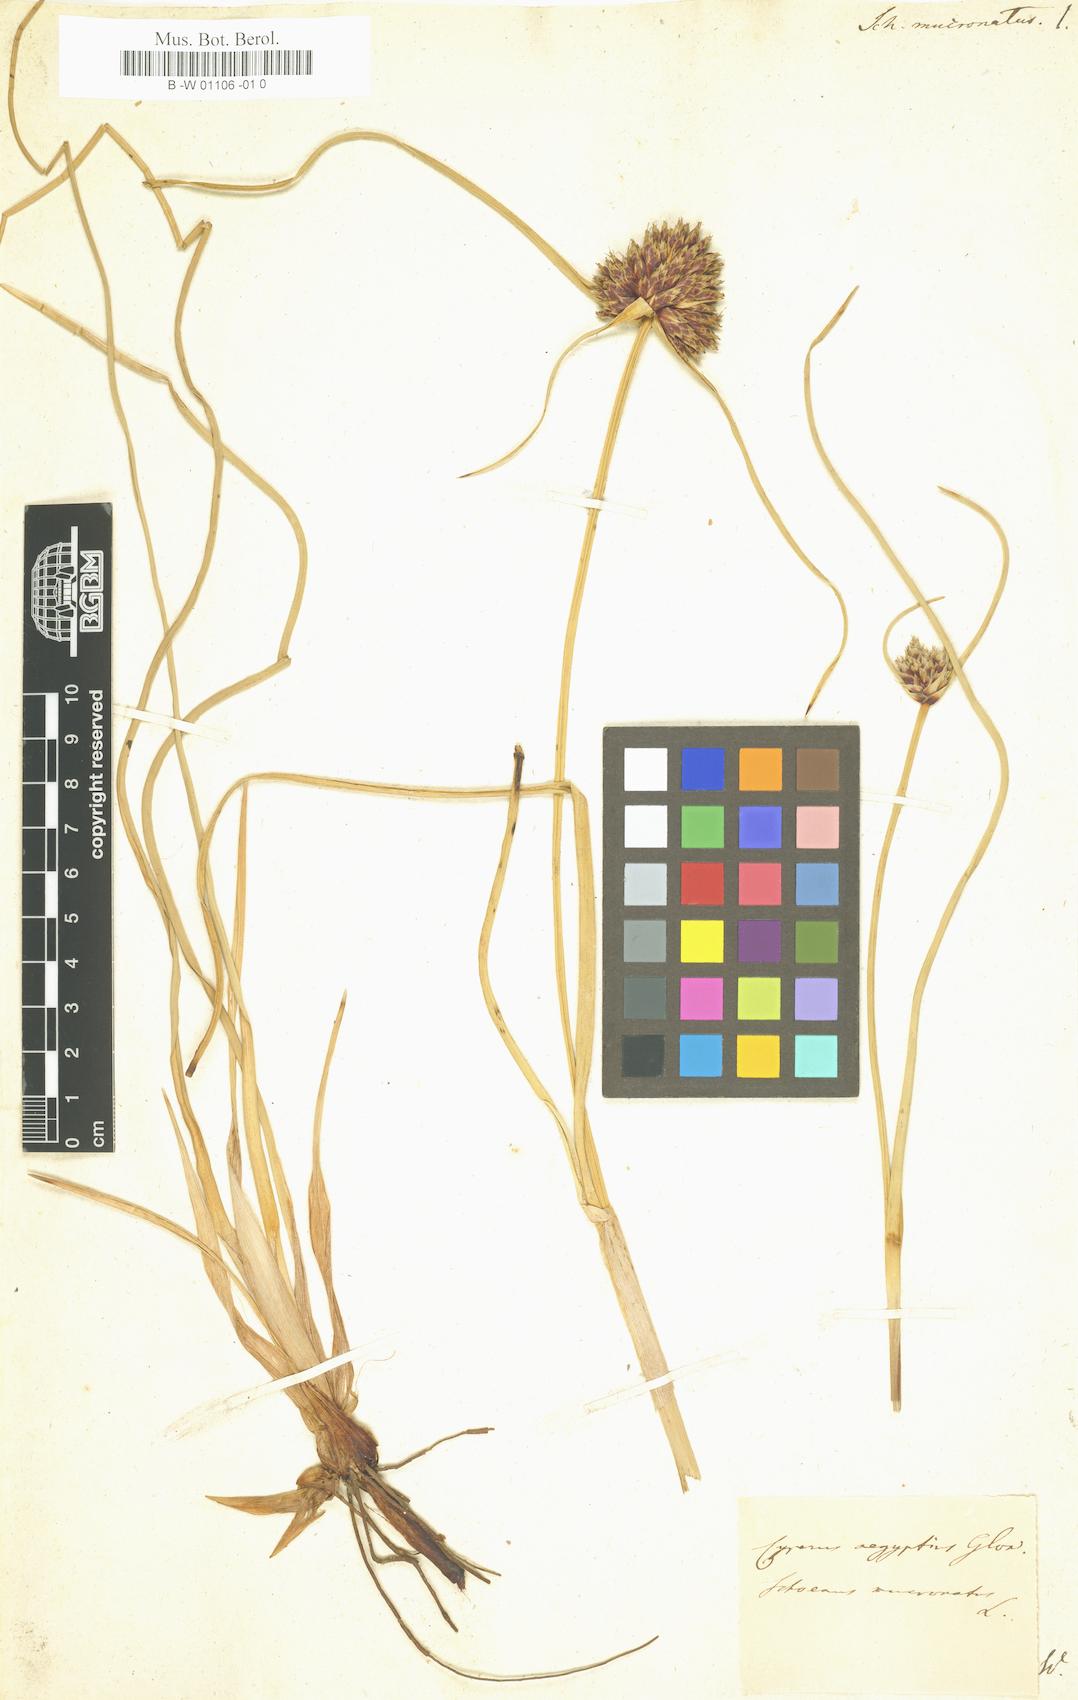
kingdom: Plantae
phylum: Tracheophyta
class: Liliopsida
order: Poales
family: Cyperaceae
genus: Cyperus
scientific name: Cyperus capitatus
